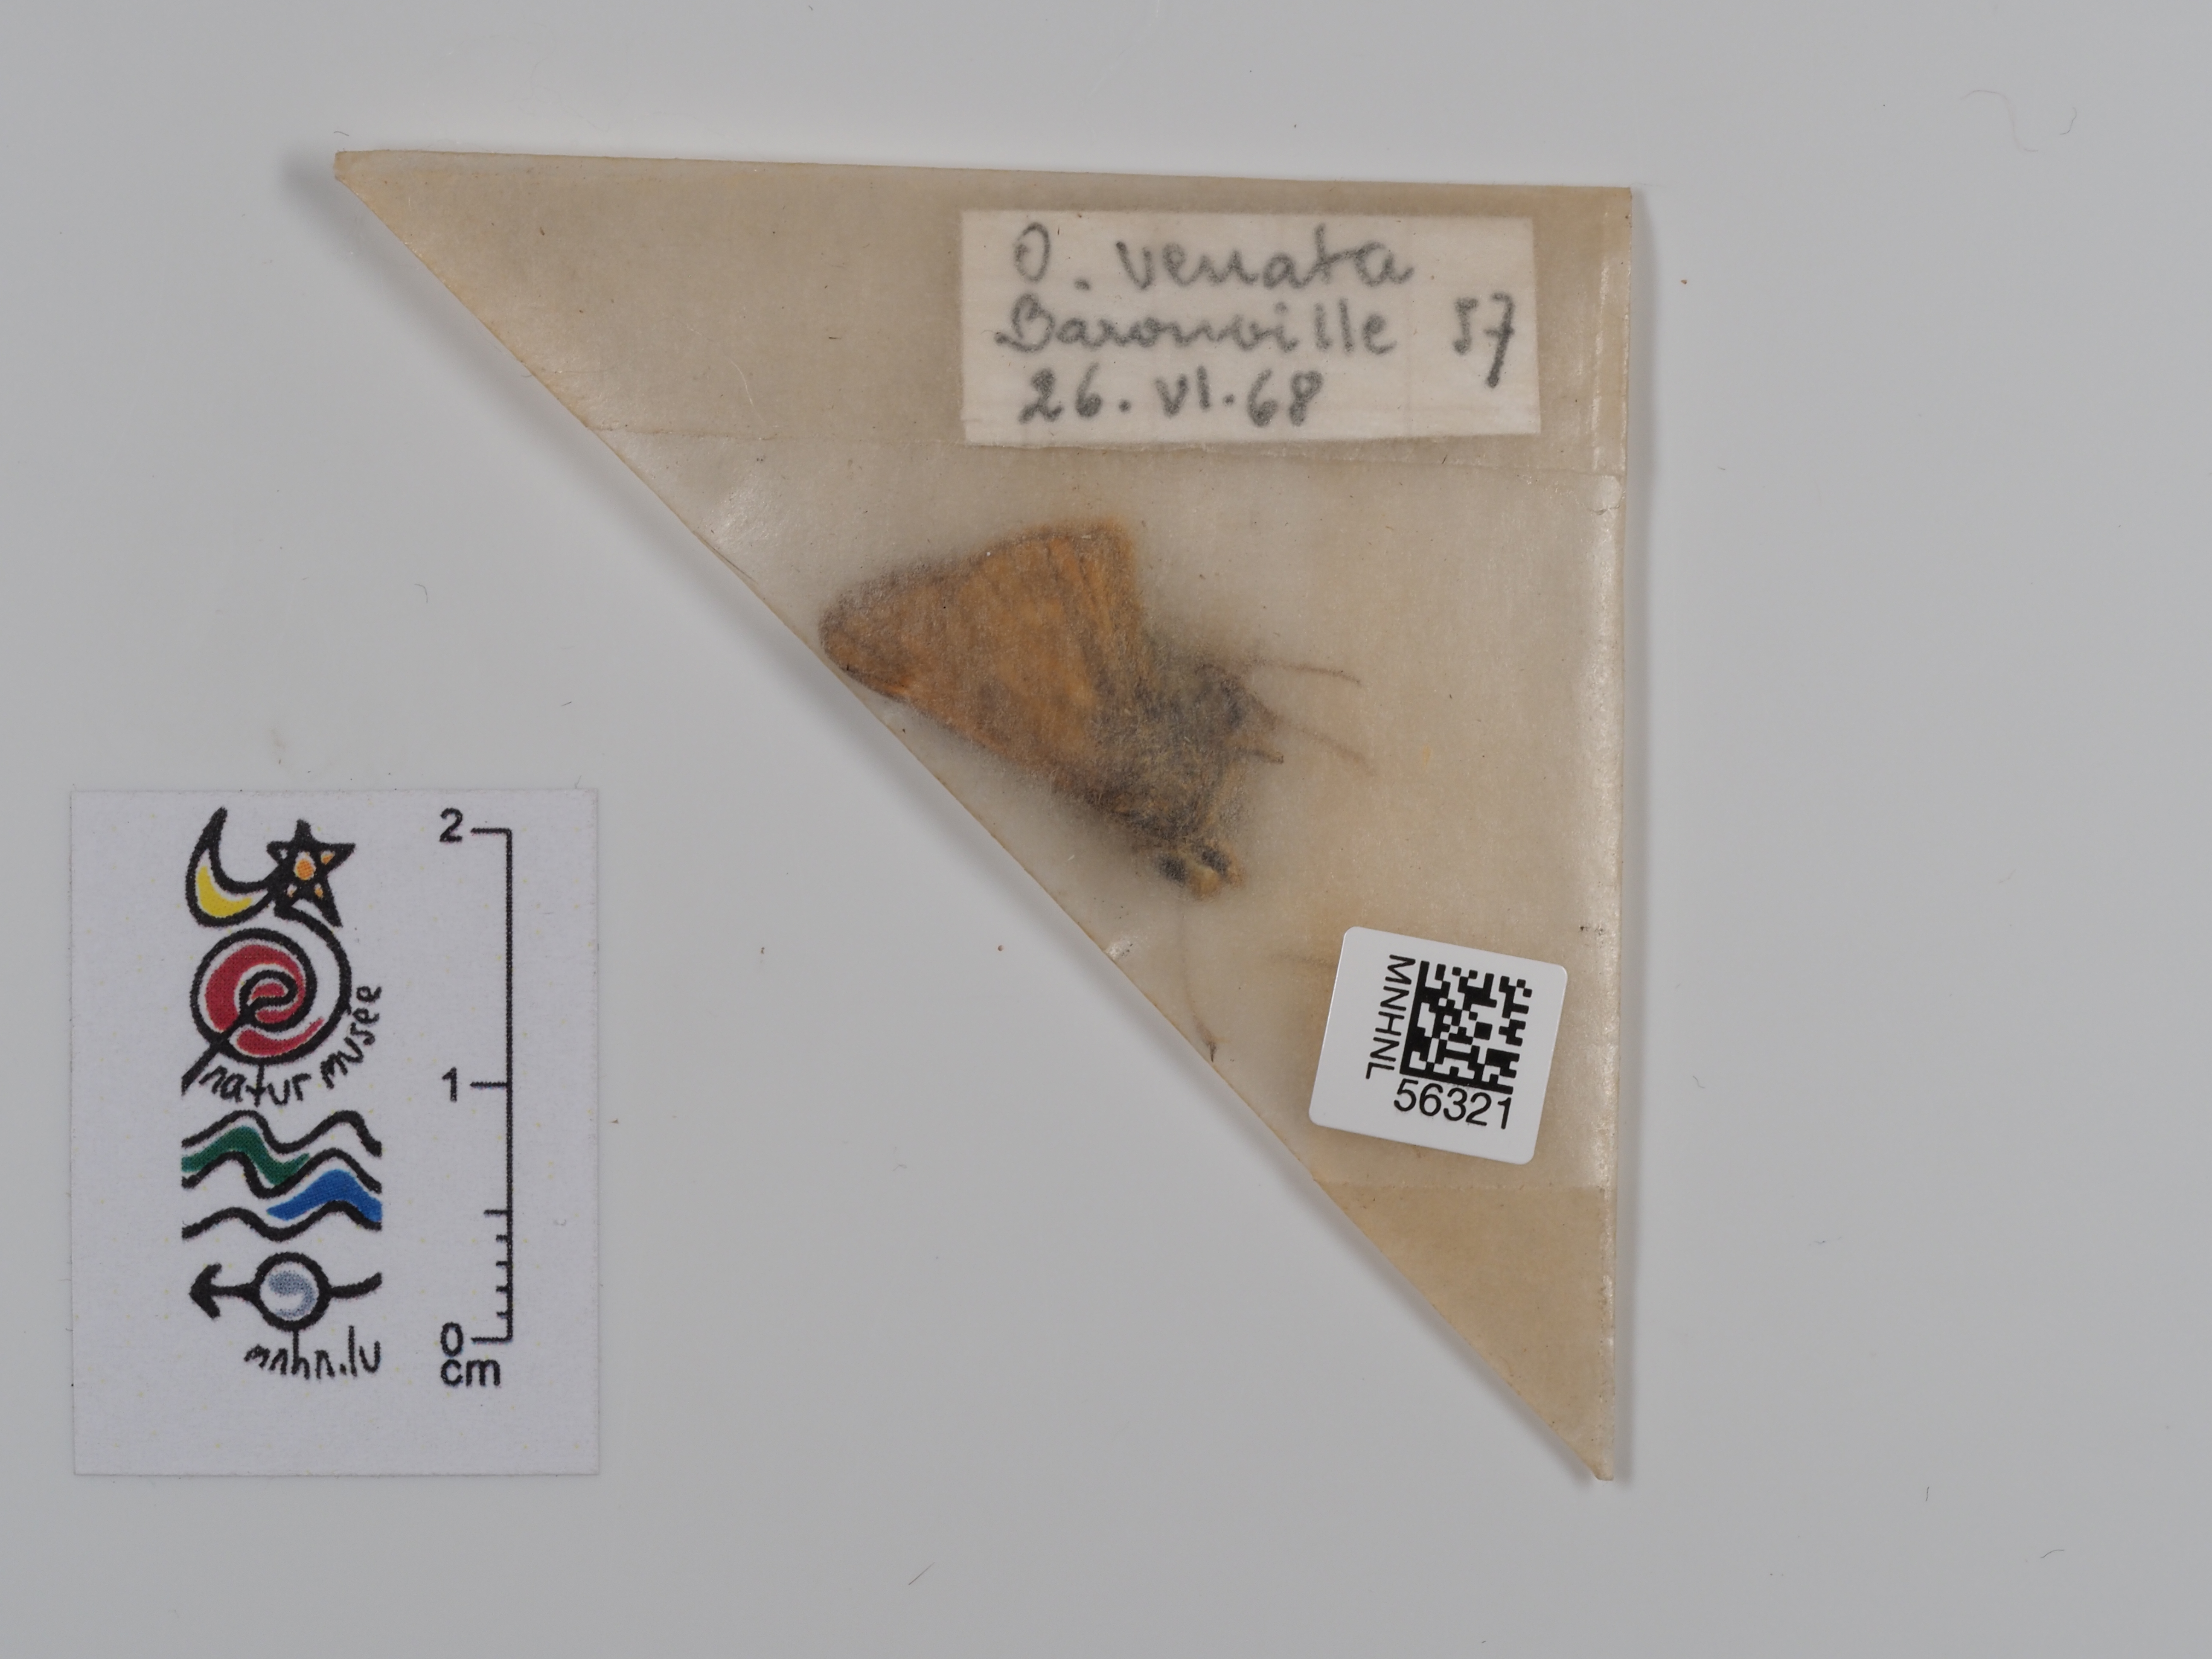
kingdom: Animalia
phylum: Arthropoda
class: Insecta
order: Lepidoptera
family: Hesperiidae
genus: Ochlodes
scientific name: Ochlodes venata
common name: Large skipper
